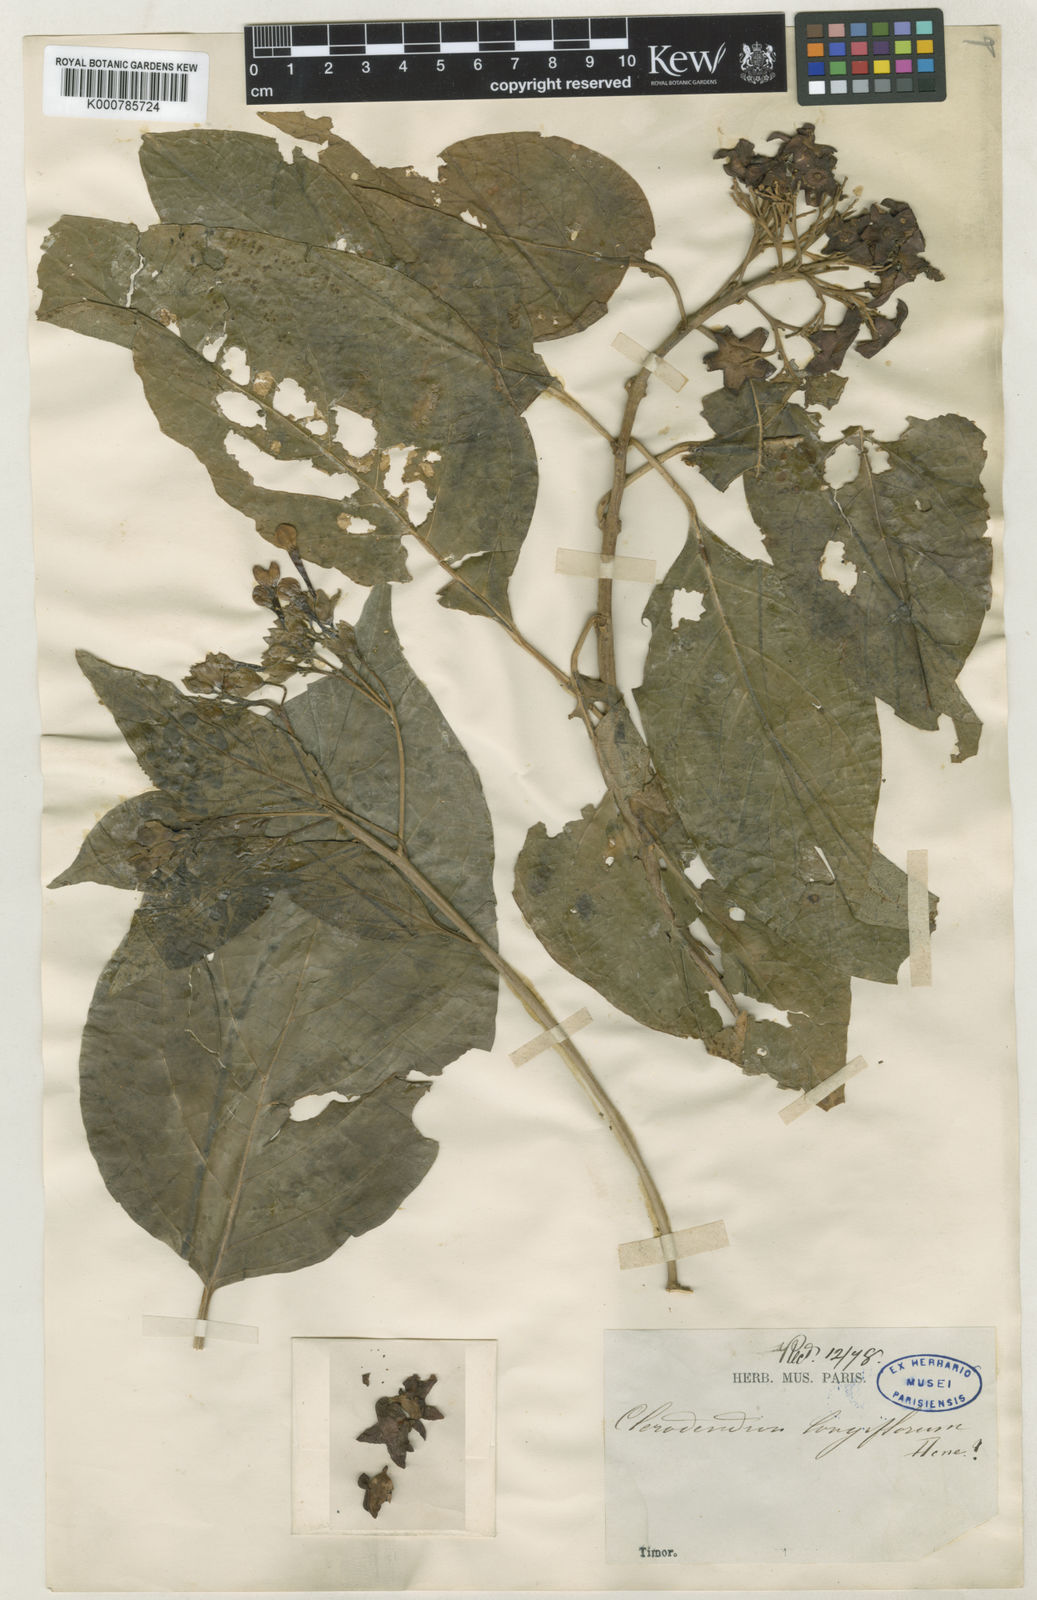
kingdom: Plantae
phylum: Tracheophyta
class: Magnoliopsida
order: Lamiales
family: Lamiaceae
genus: Clerodendrum
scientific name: Clerodendrum longiflorum
